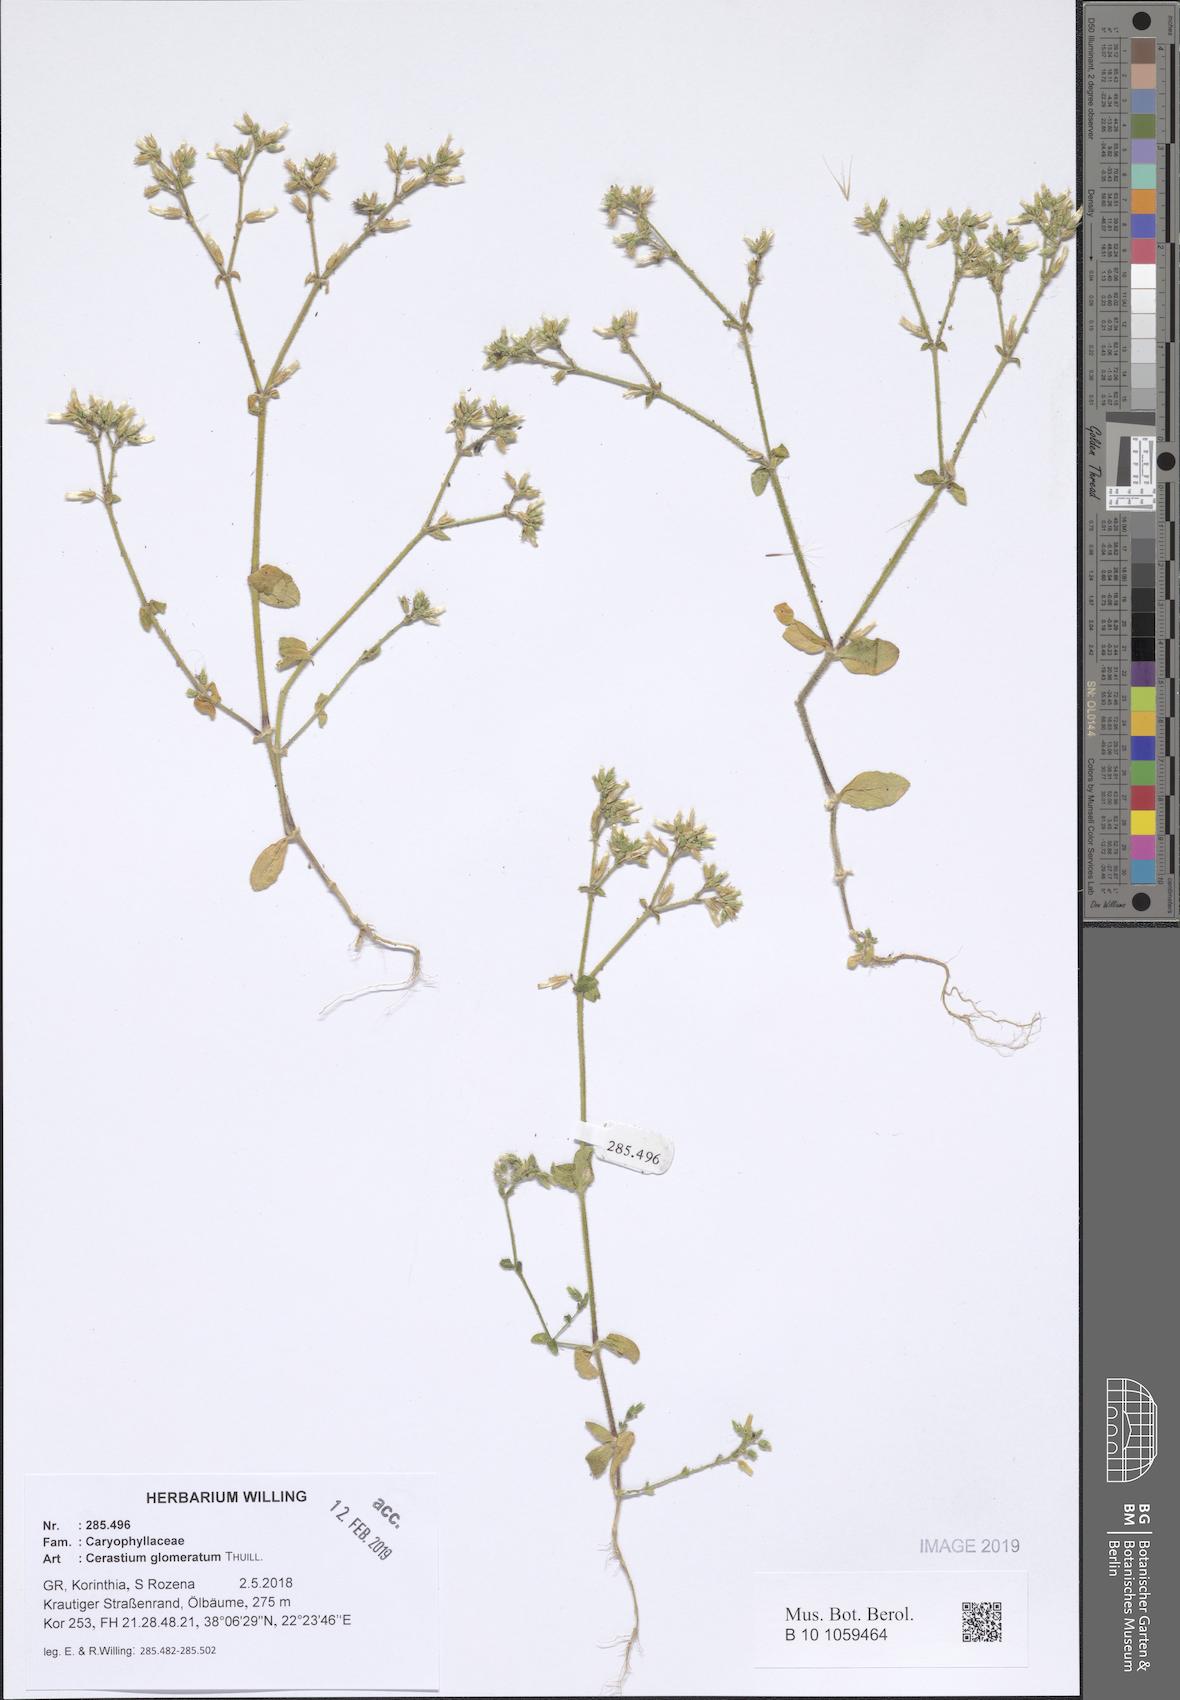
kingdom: Plantae
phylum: Tracheophyta
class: Magnoliopsida
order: Caryophyllales
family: Caryophyllaceae
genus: Cerastium
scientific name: Cerastium glomeratum
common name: Sticky chickweed
